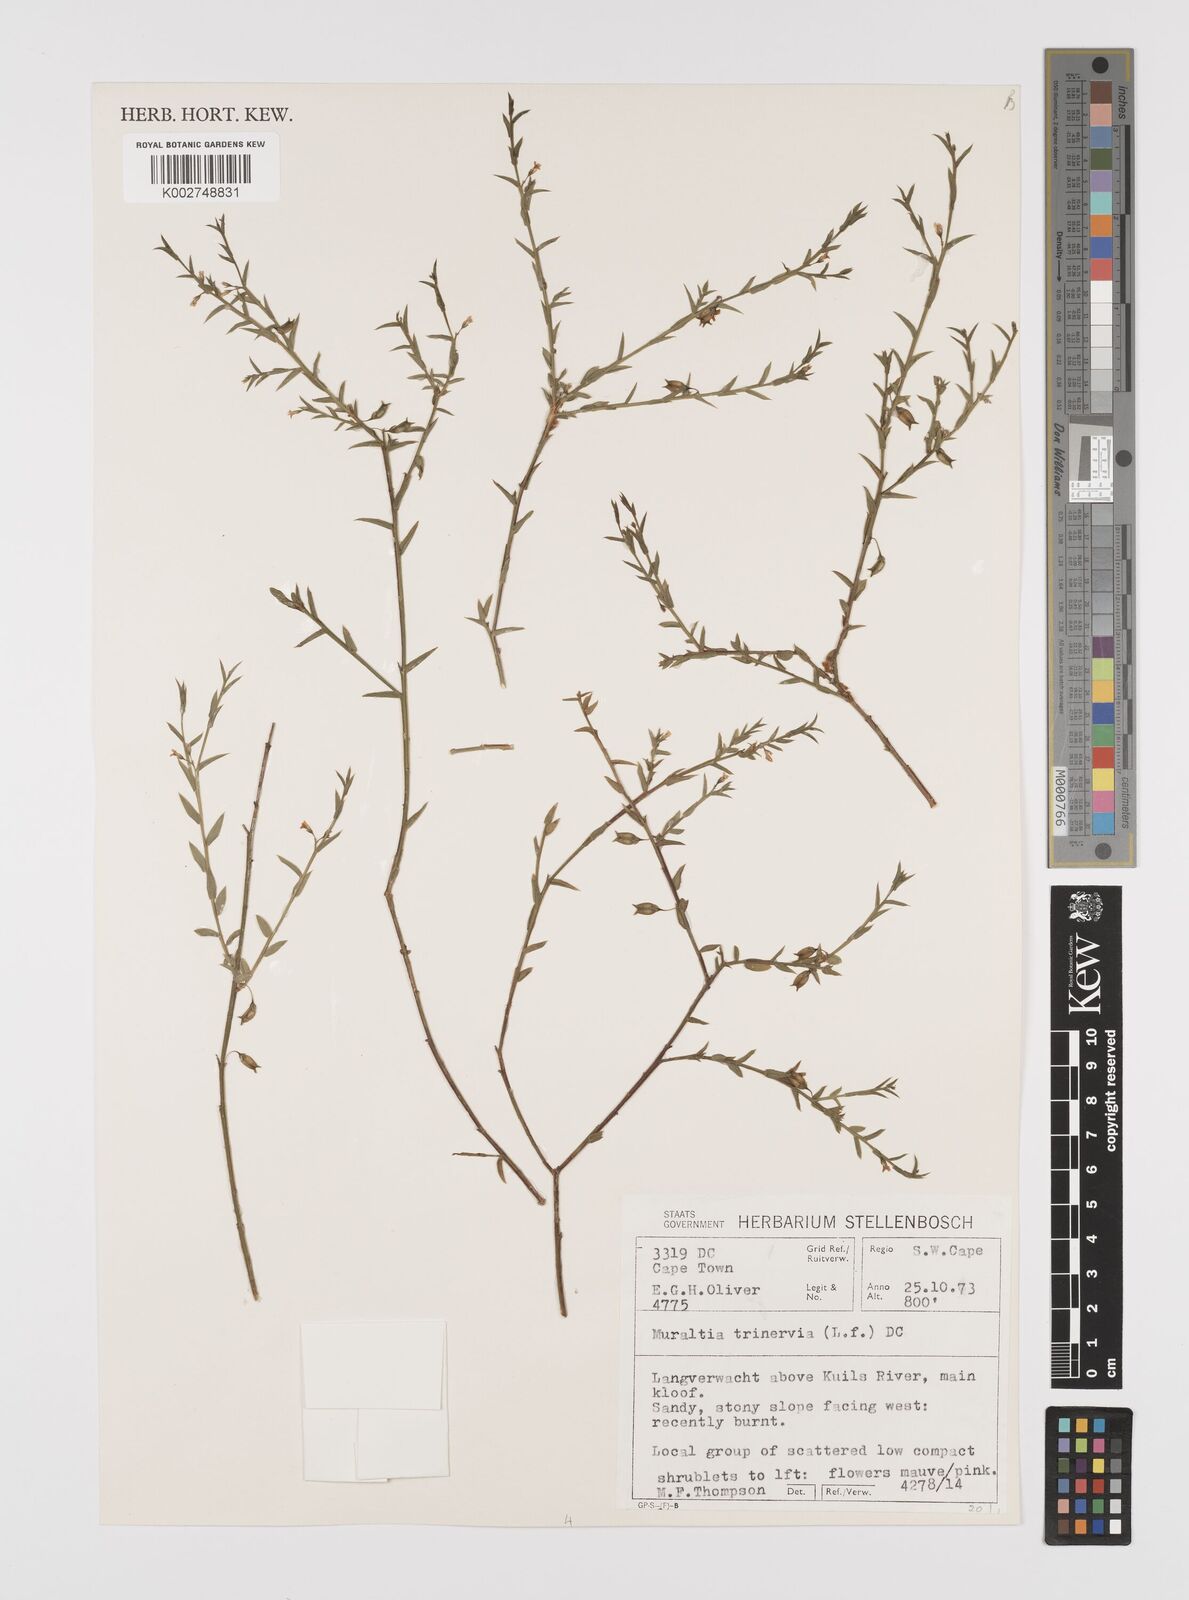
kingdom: Plantae
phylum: Tracheophyta
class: Magnoliopsida
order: Fabales
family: Polygalaceae
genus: Muraltia
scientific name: Muraltia trinervia
